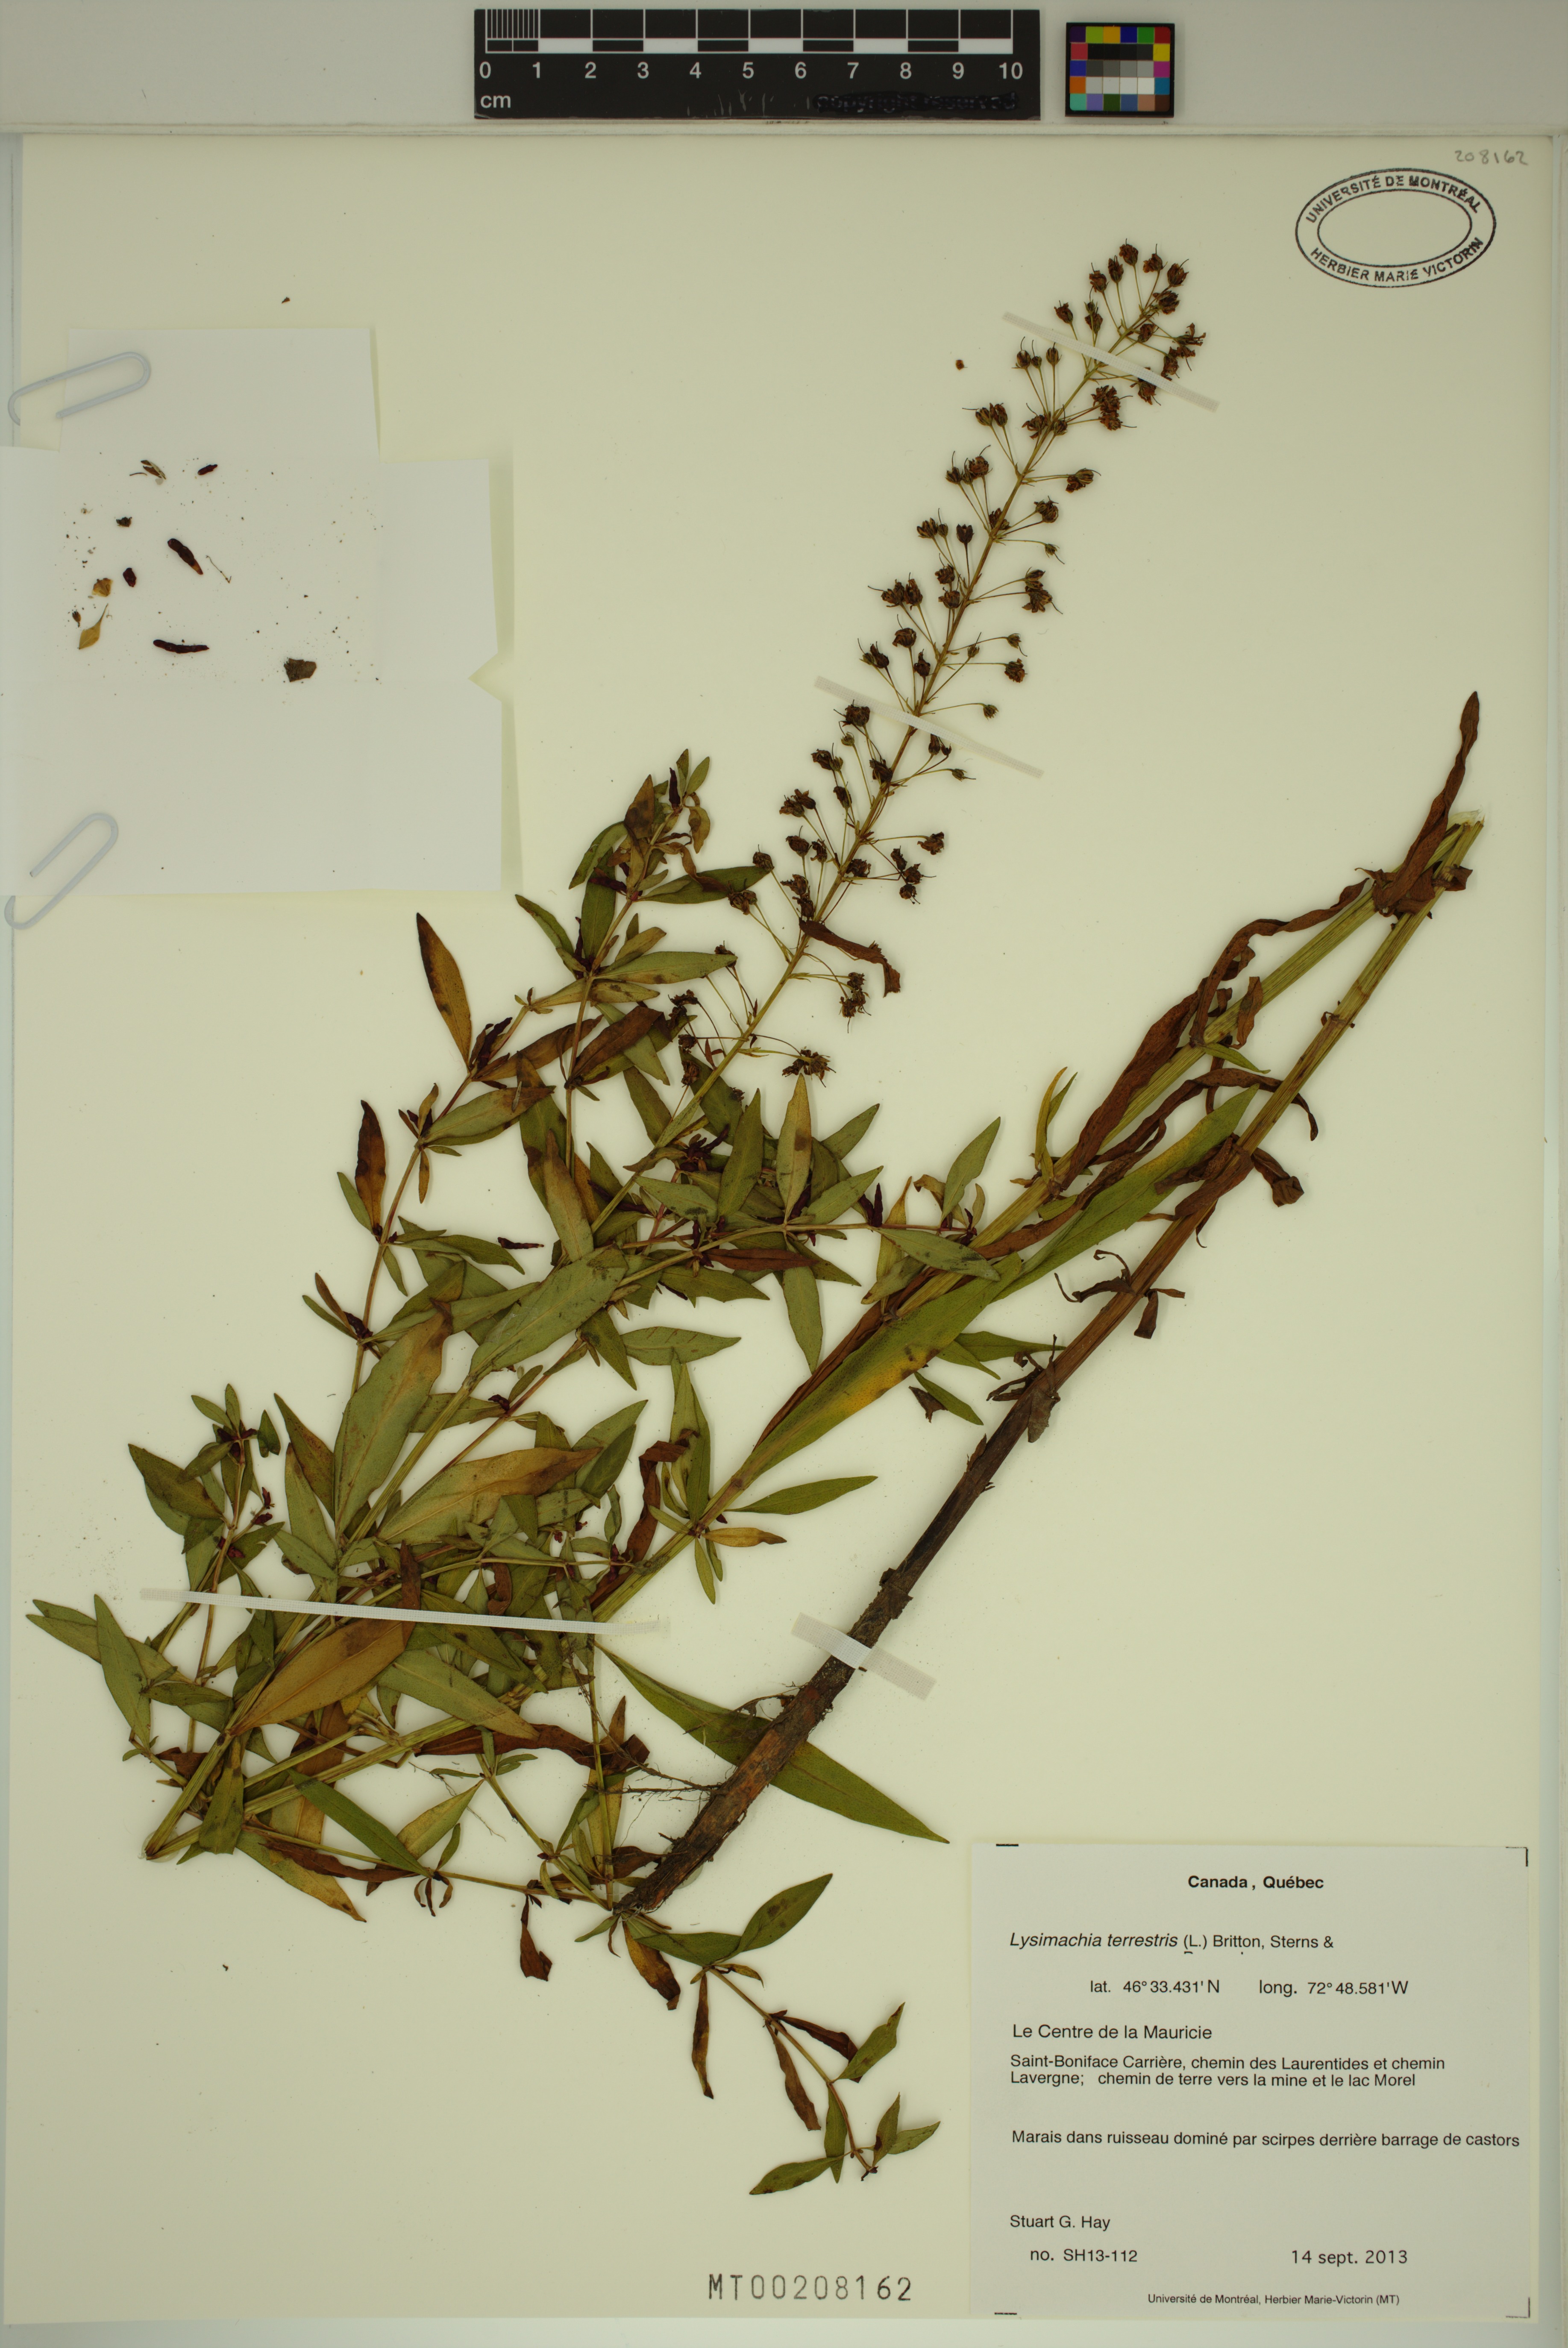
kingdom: Plantae
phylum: Tracheophyta
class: Magnoliopsida
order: Ericales
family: Primulaceae
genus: Lysimachia
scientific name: Lysimachia terrestris
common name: Lake loosestrife
